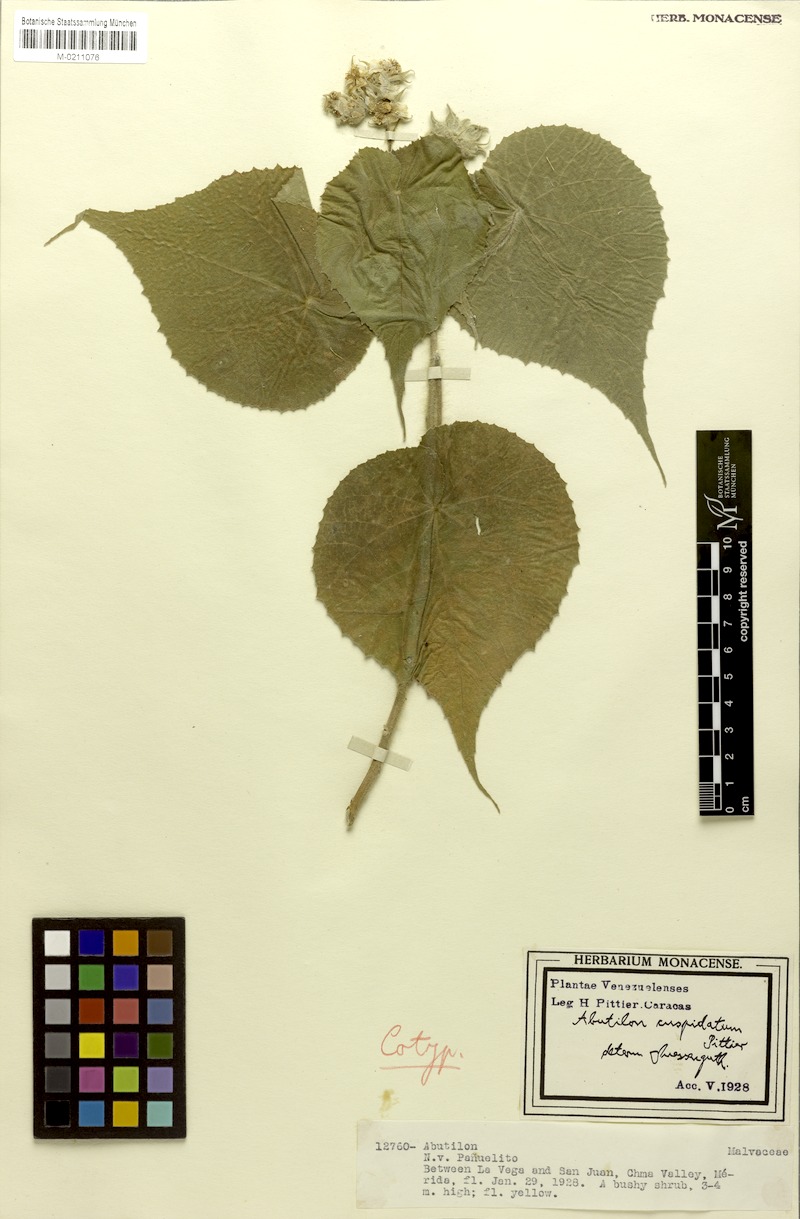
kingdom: Plantae
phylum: Tracheophyta
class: Magnoliopsida
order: Malvales
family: Malvaceae
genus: Abutilon
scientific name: Abutilon cuspidatum
